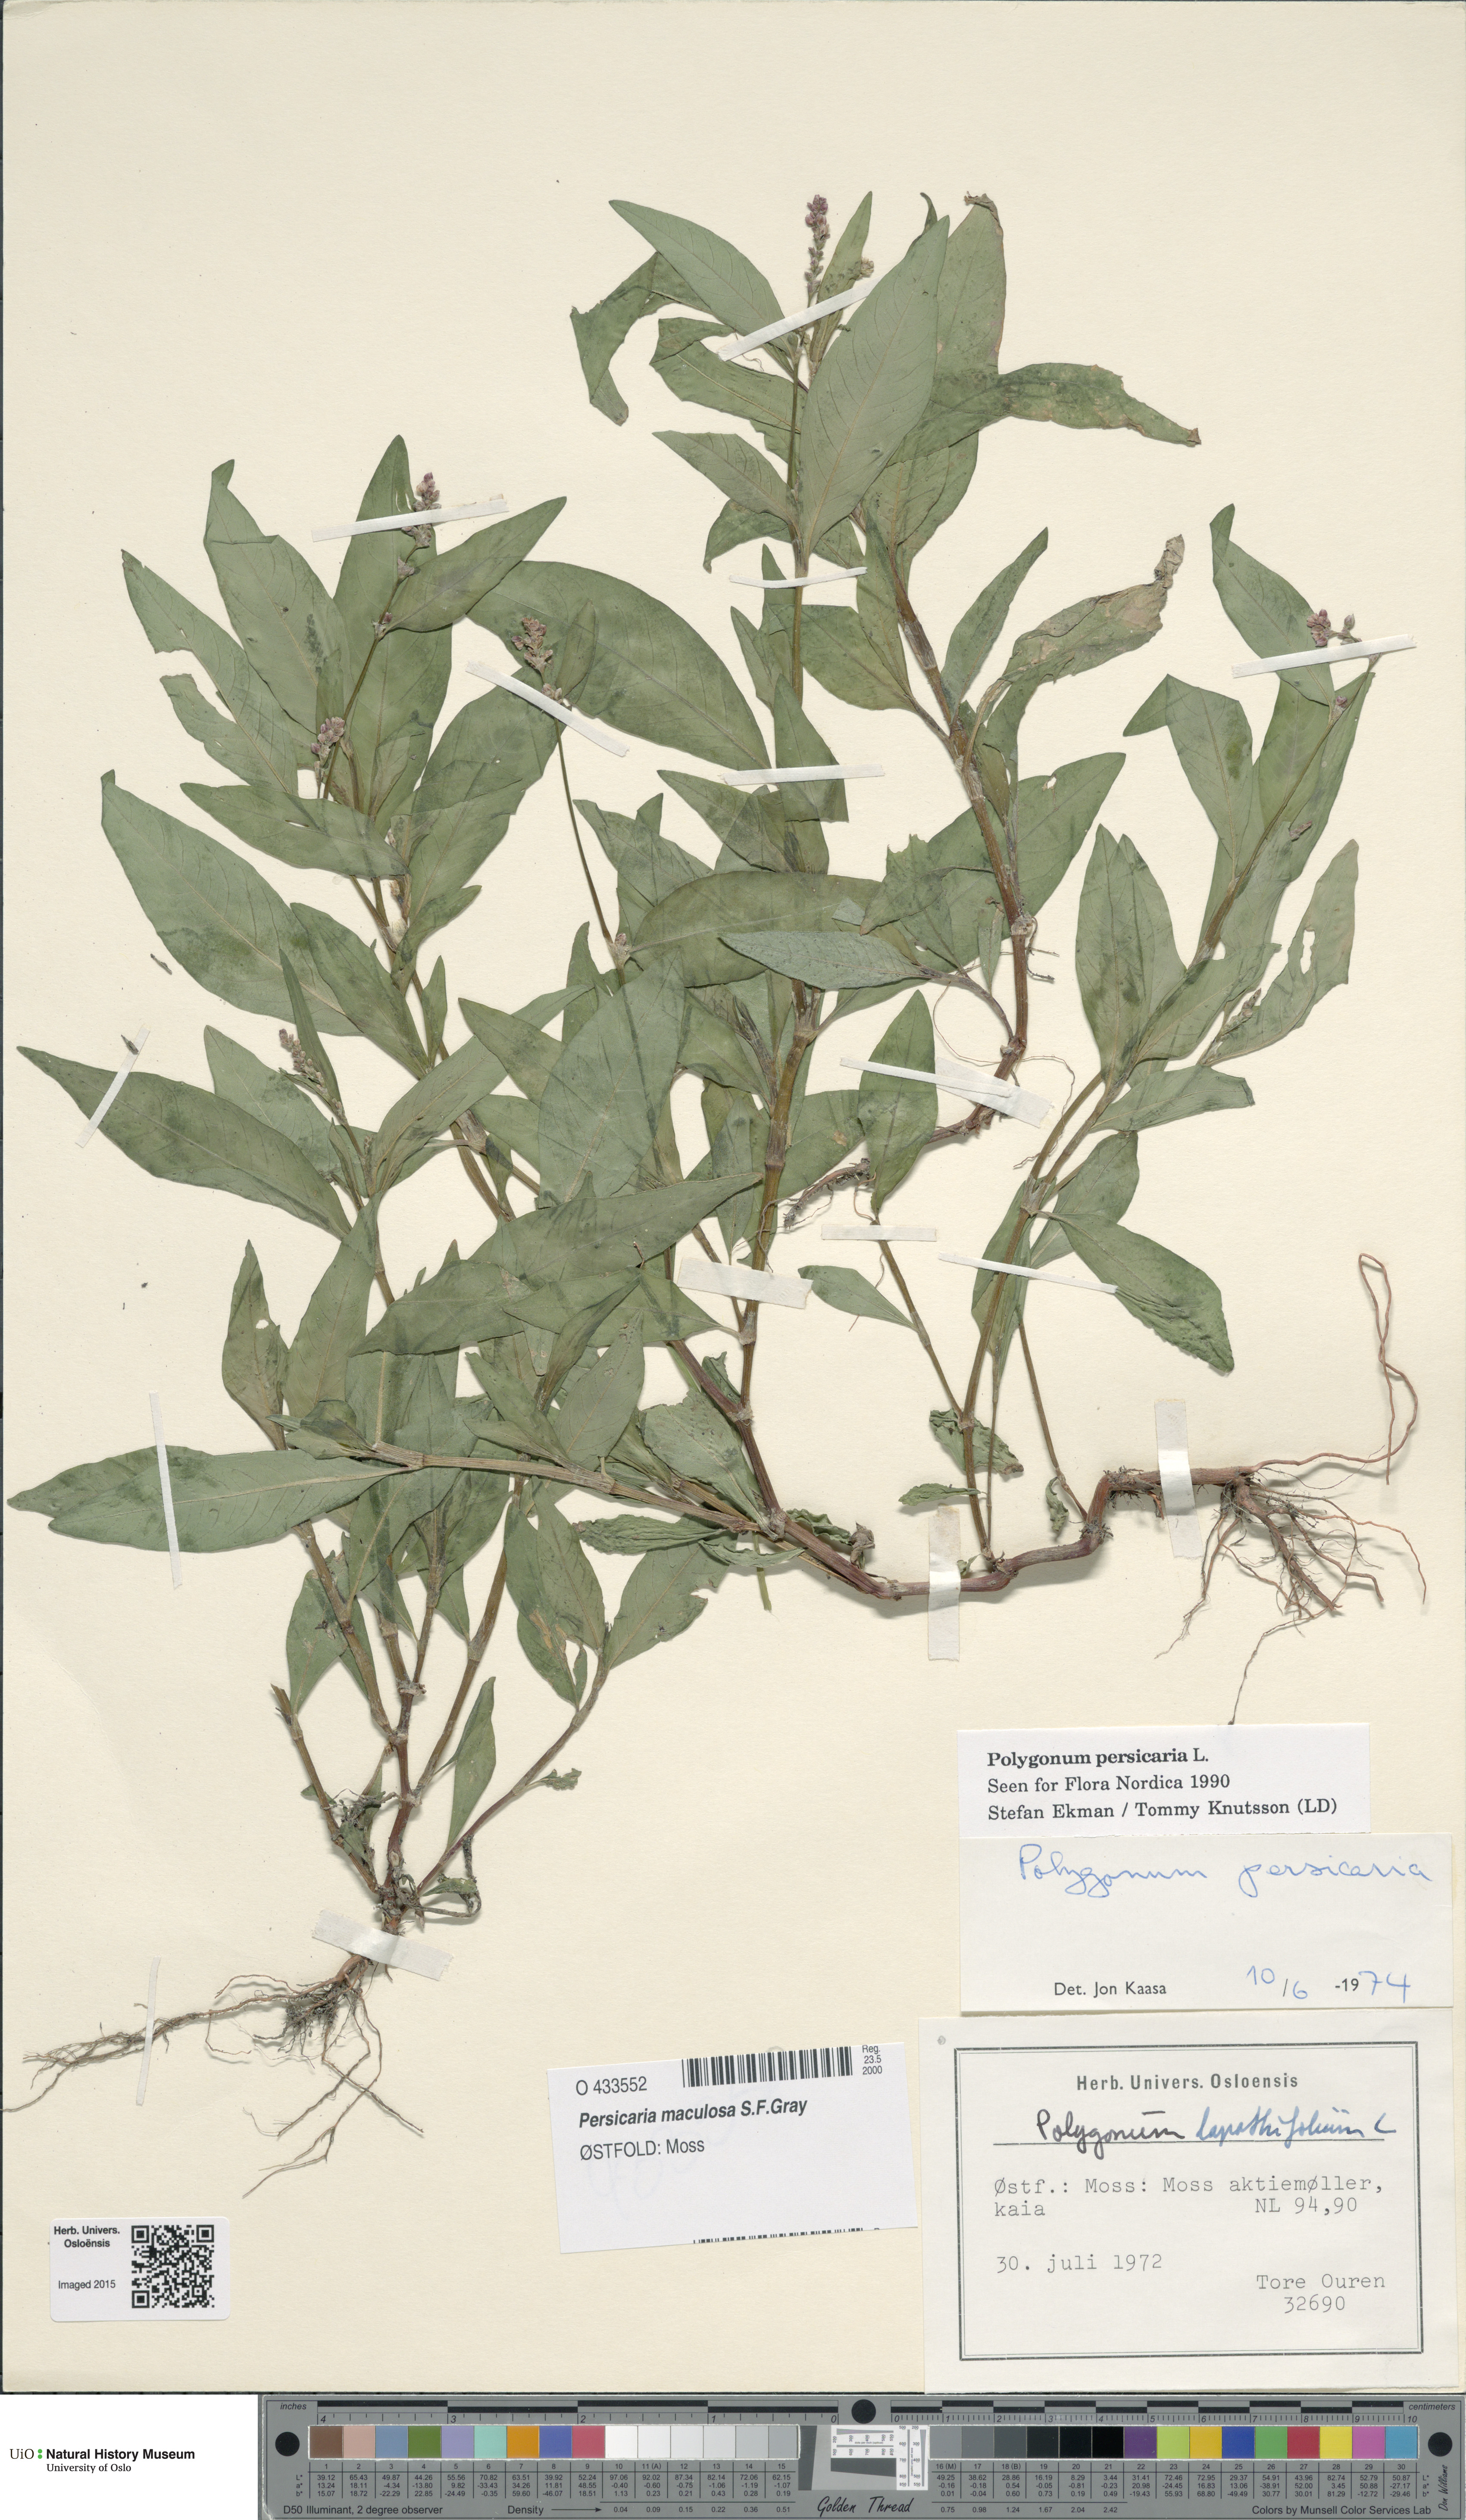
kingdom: Plantae
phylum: Tracheophyta
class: Magnoliopsida
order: Caryophyllales
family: Polygonaceae
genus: Persicaria
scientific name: Persicaria maculosa
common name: Redshank
